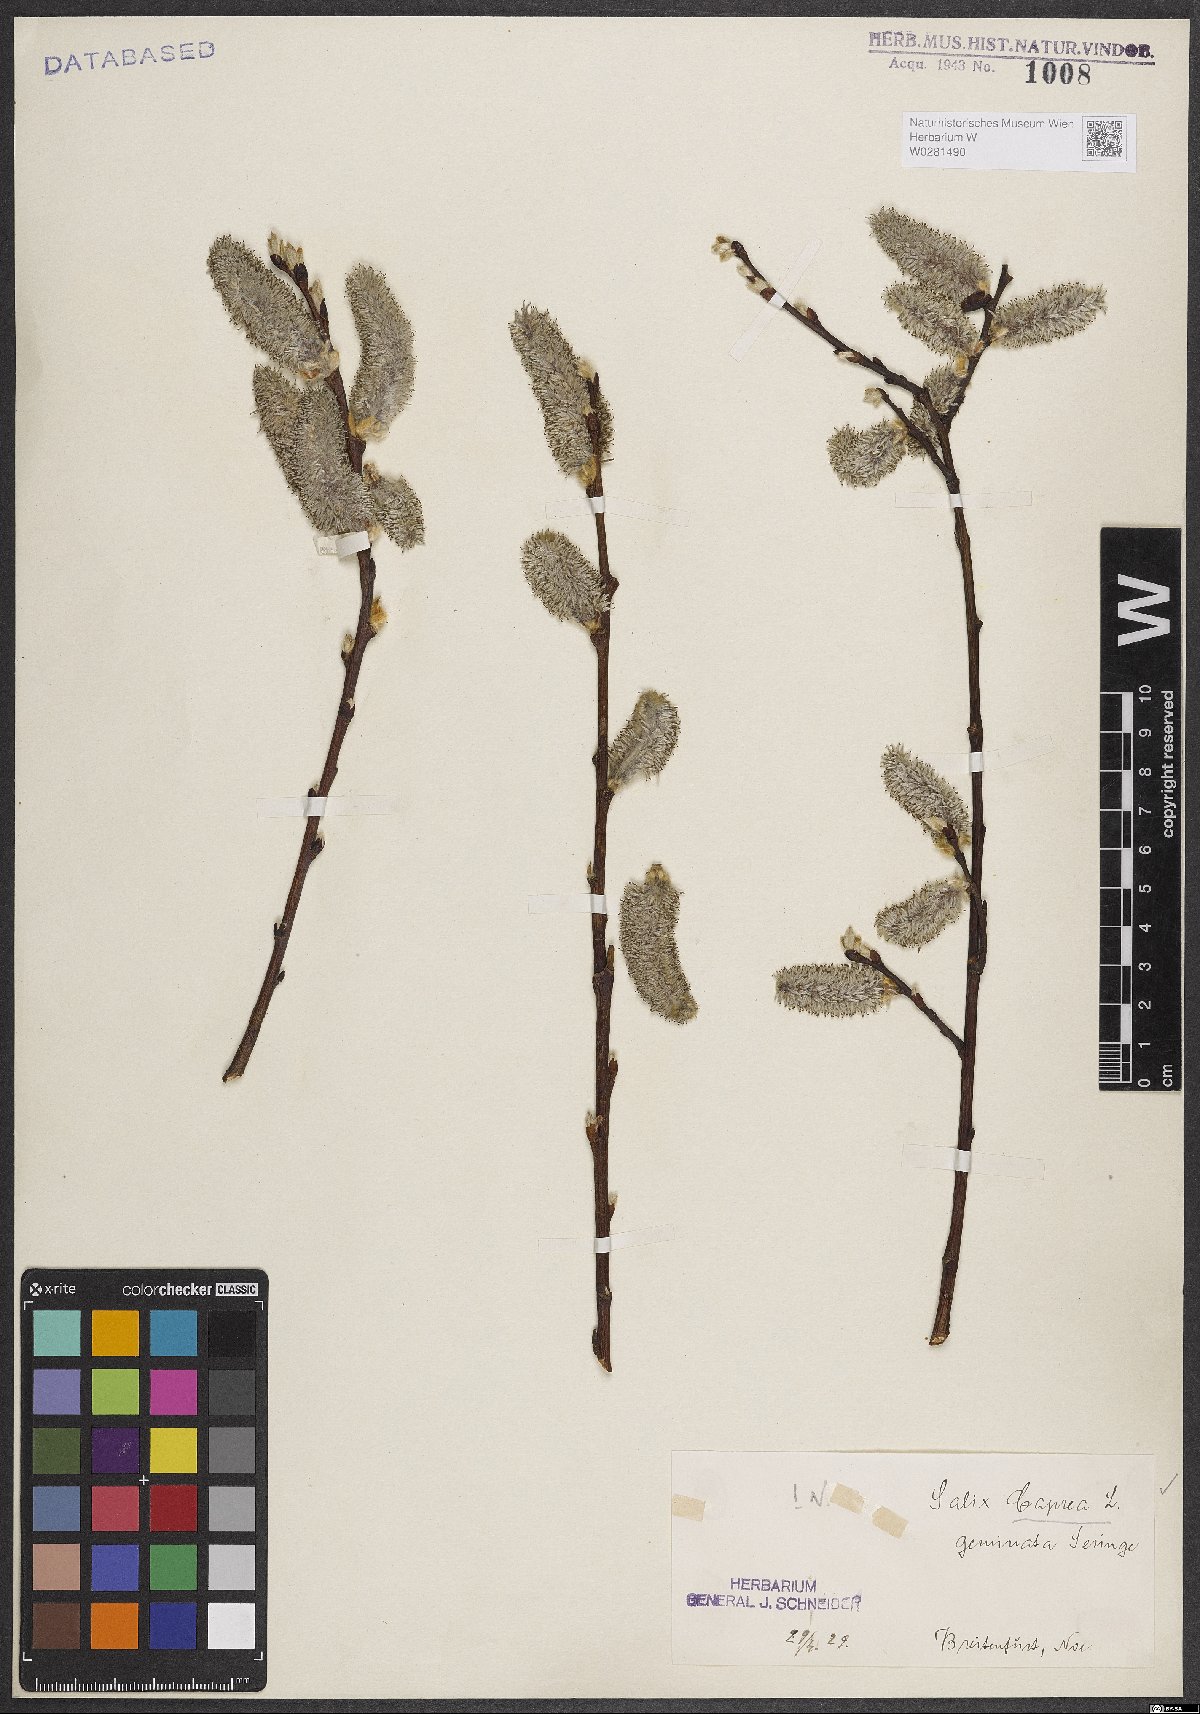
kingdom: Plantae
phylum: Tracheophyta
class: Magnoliopsida
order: Malpighiales
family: Salicaceae
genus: Salix
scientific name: Salix caprea
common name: Goat willow
